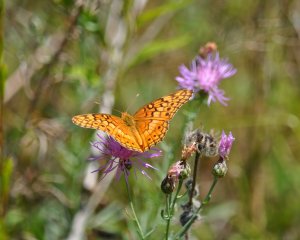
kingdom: Animalia
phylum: Arthropoda
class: Insecta
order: Lepidoptera
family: Nymphalidae
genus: Euptoieta
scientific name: Euptoieta claudia
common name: Variegated Fritillary
